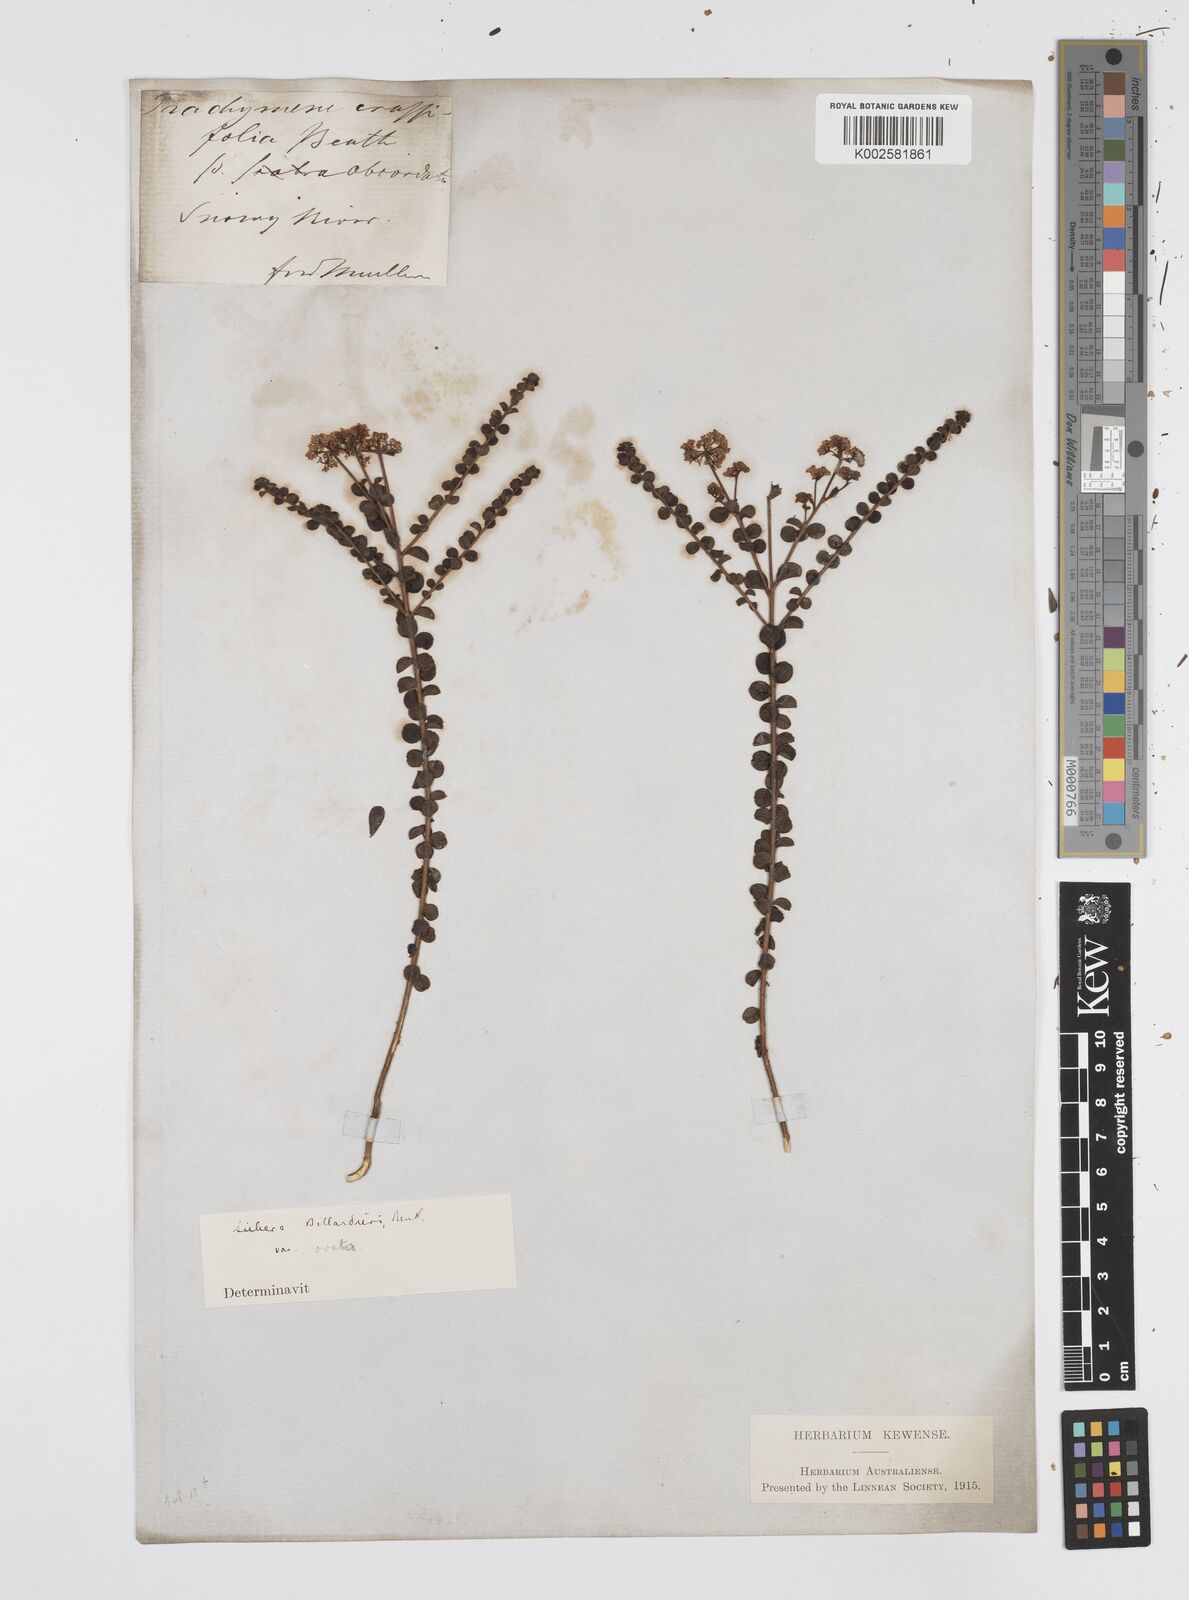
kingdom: Plantae
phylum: Tracheophyta
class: Magnoliopsida
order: Apiales
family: Apiaceae
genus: Platysace
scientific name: Platysace lanceolata
